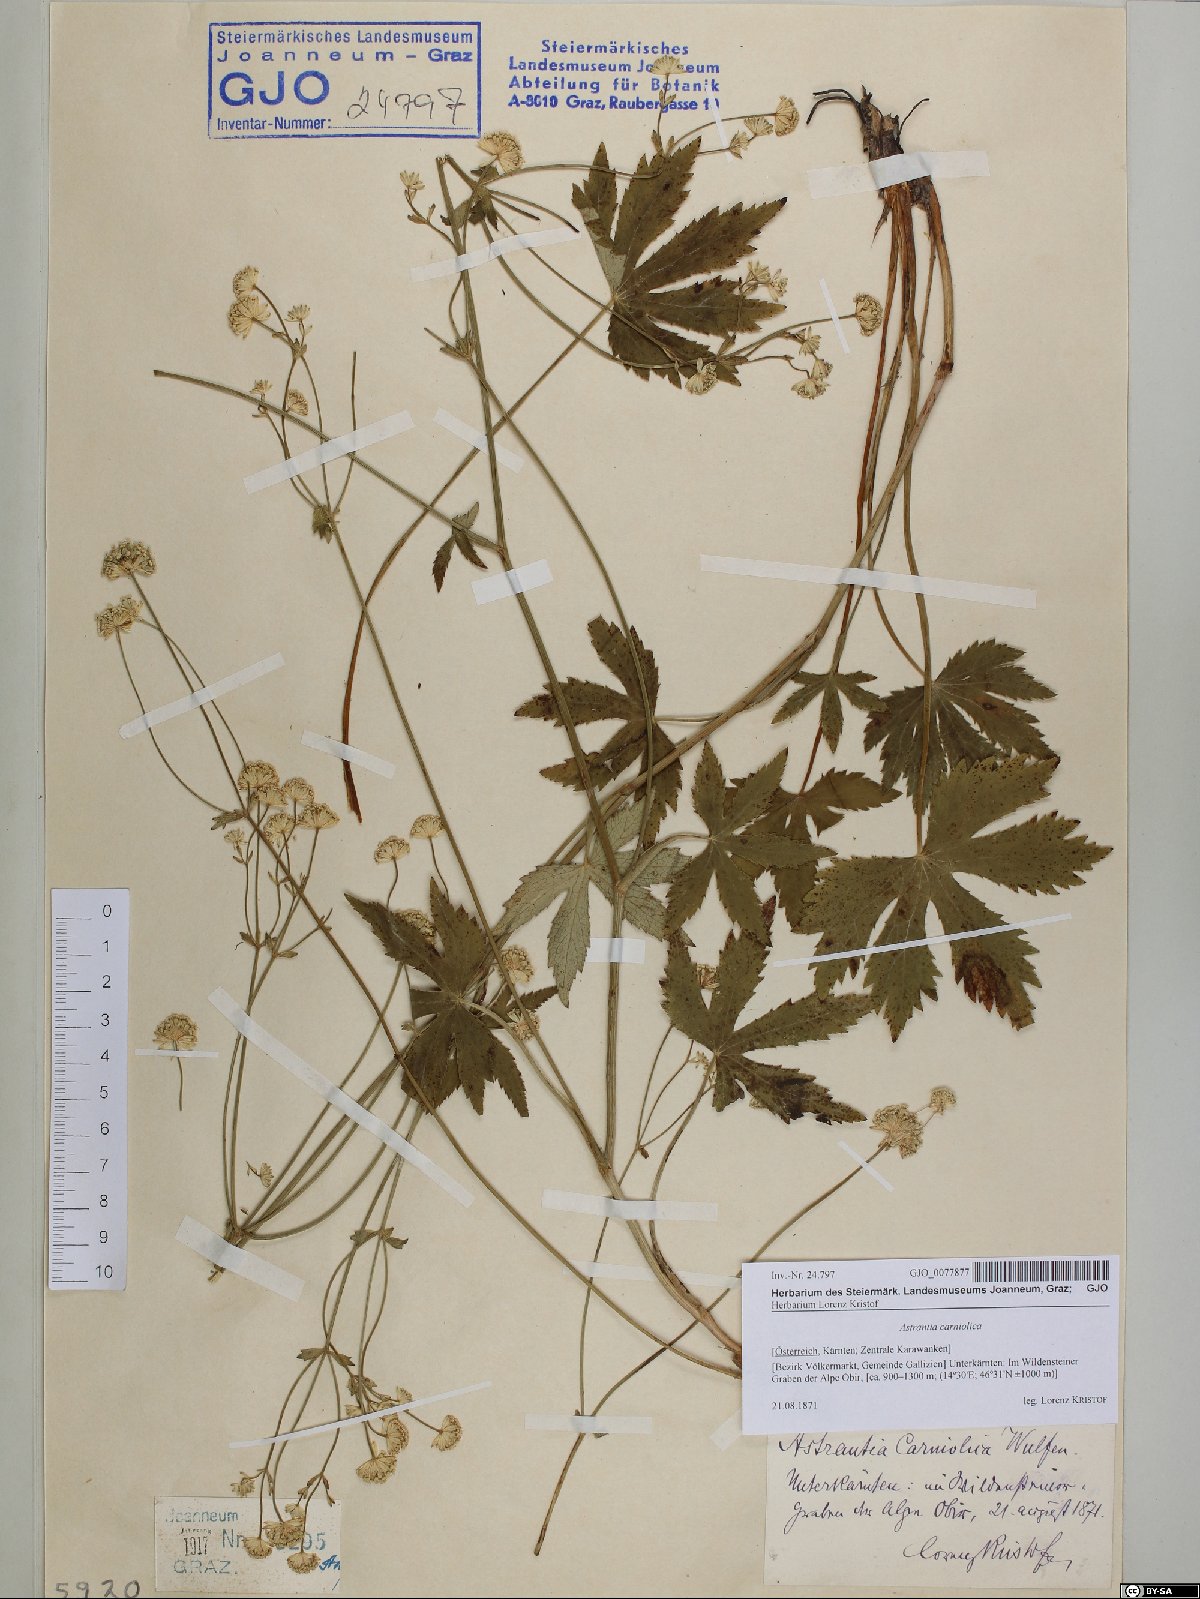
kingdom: Plantae
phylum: Tracheophyta
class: Magnoliopsida
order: Apiales
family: Apiaceae
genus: Astrantia
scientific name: Astrantia carniolica
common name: Carnic masterwort
